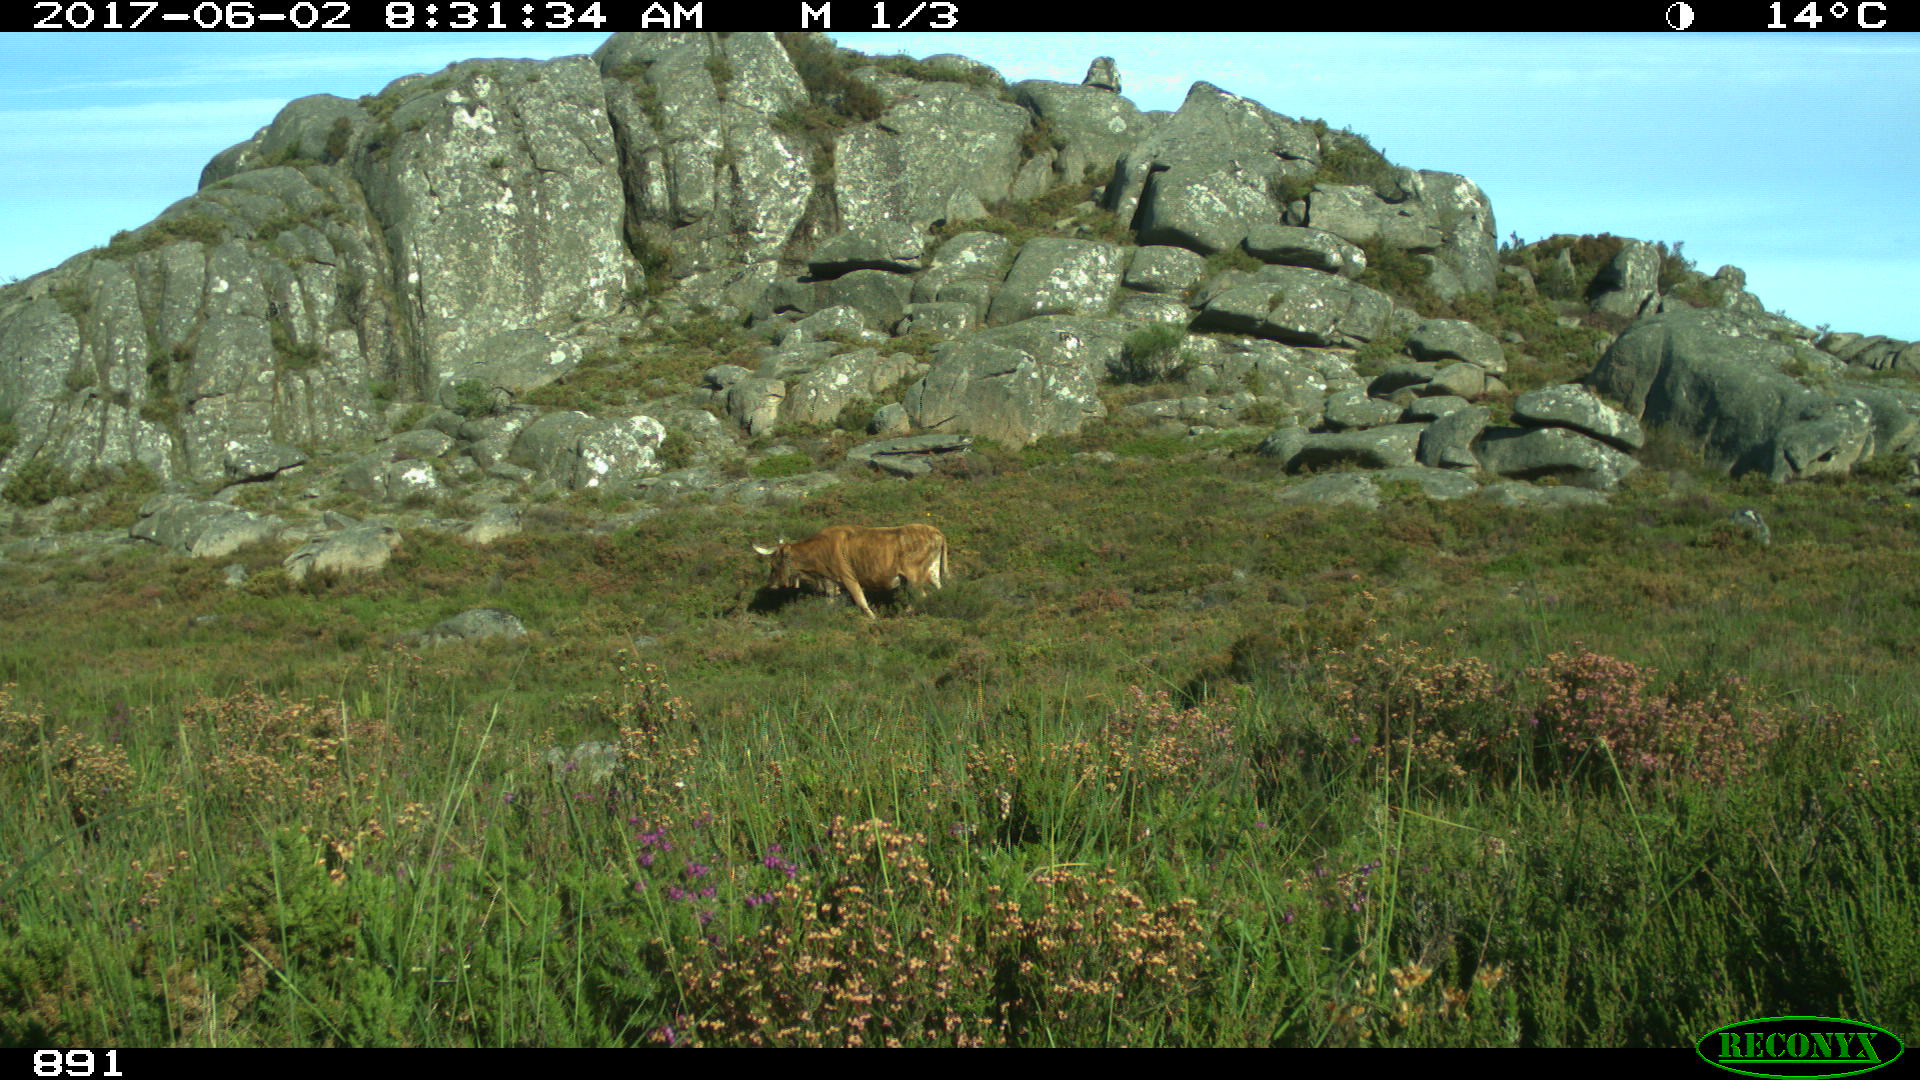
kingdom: Animalia
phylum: Chordata
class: Mammalia
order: Artiodactyla
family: Bovidae
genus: Bos
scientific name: Bos taurus
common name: Domesticated cattle
